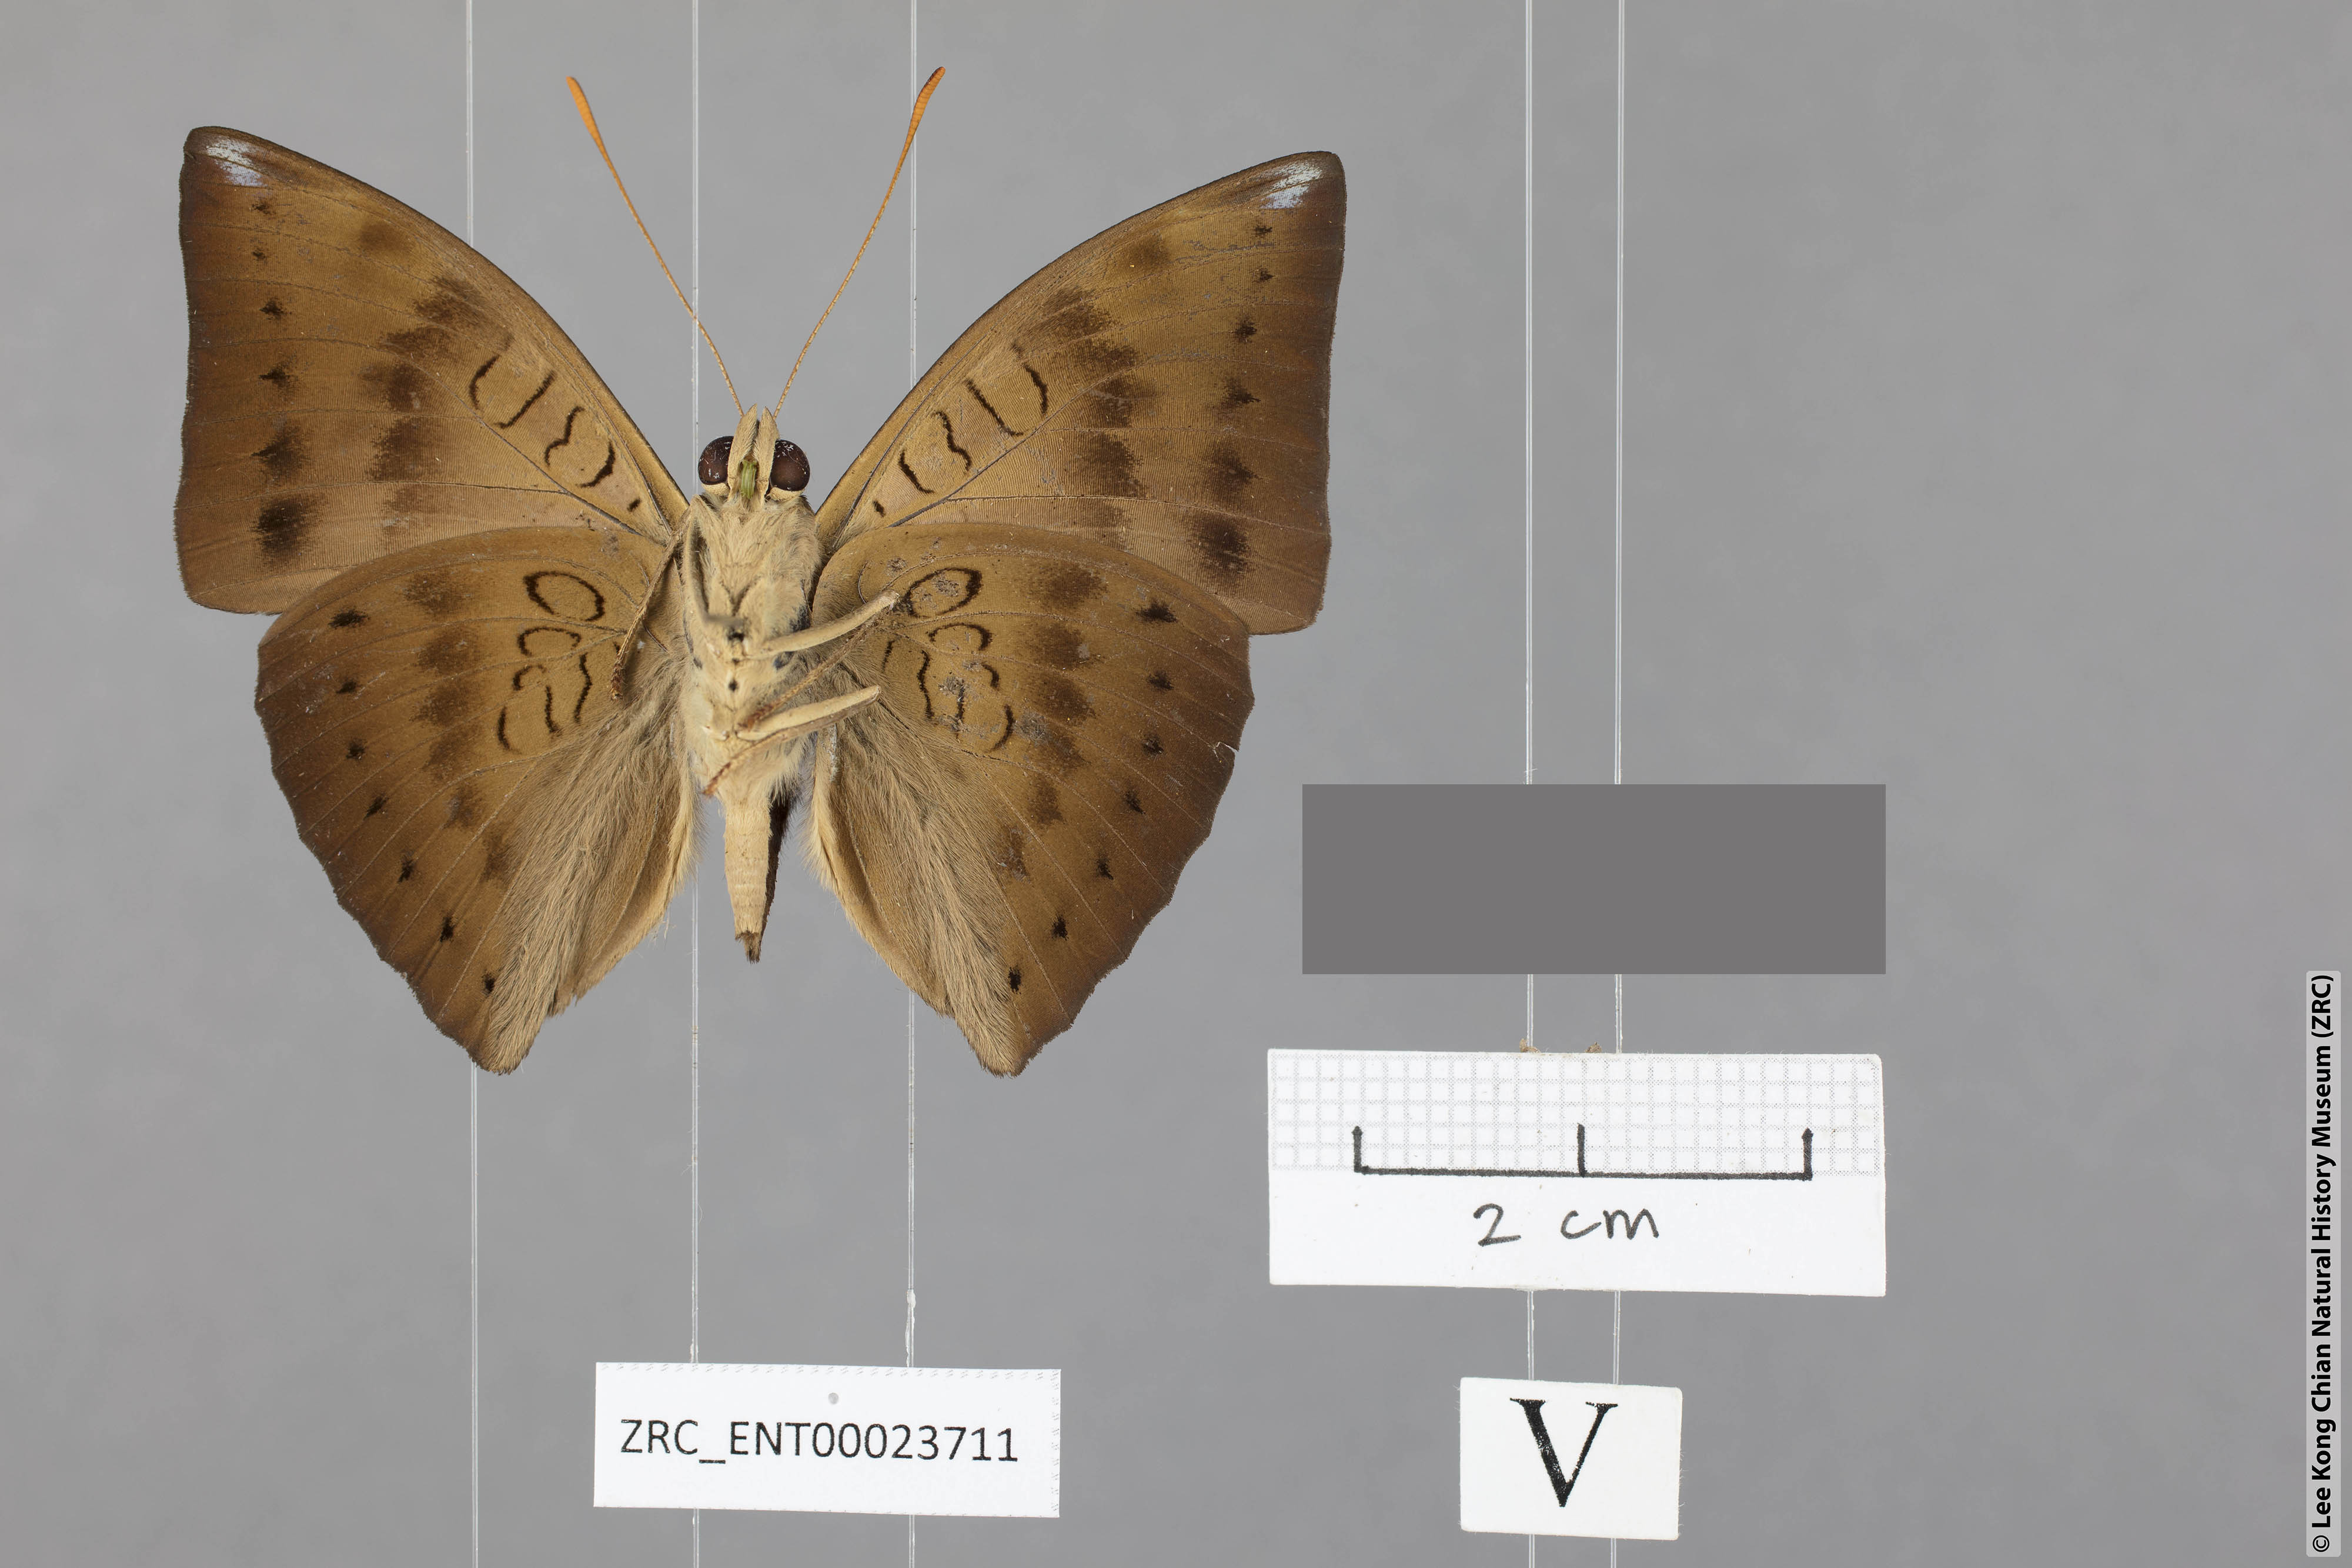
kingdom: Animalia
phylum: Arthropoda
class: Insecta
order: Lepidoptera
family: Nymphalidae
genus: Euthalia
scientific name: Euthalia merta
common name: White tipped baron
